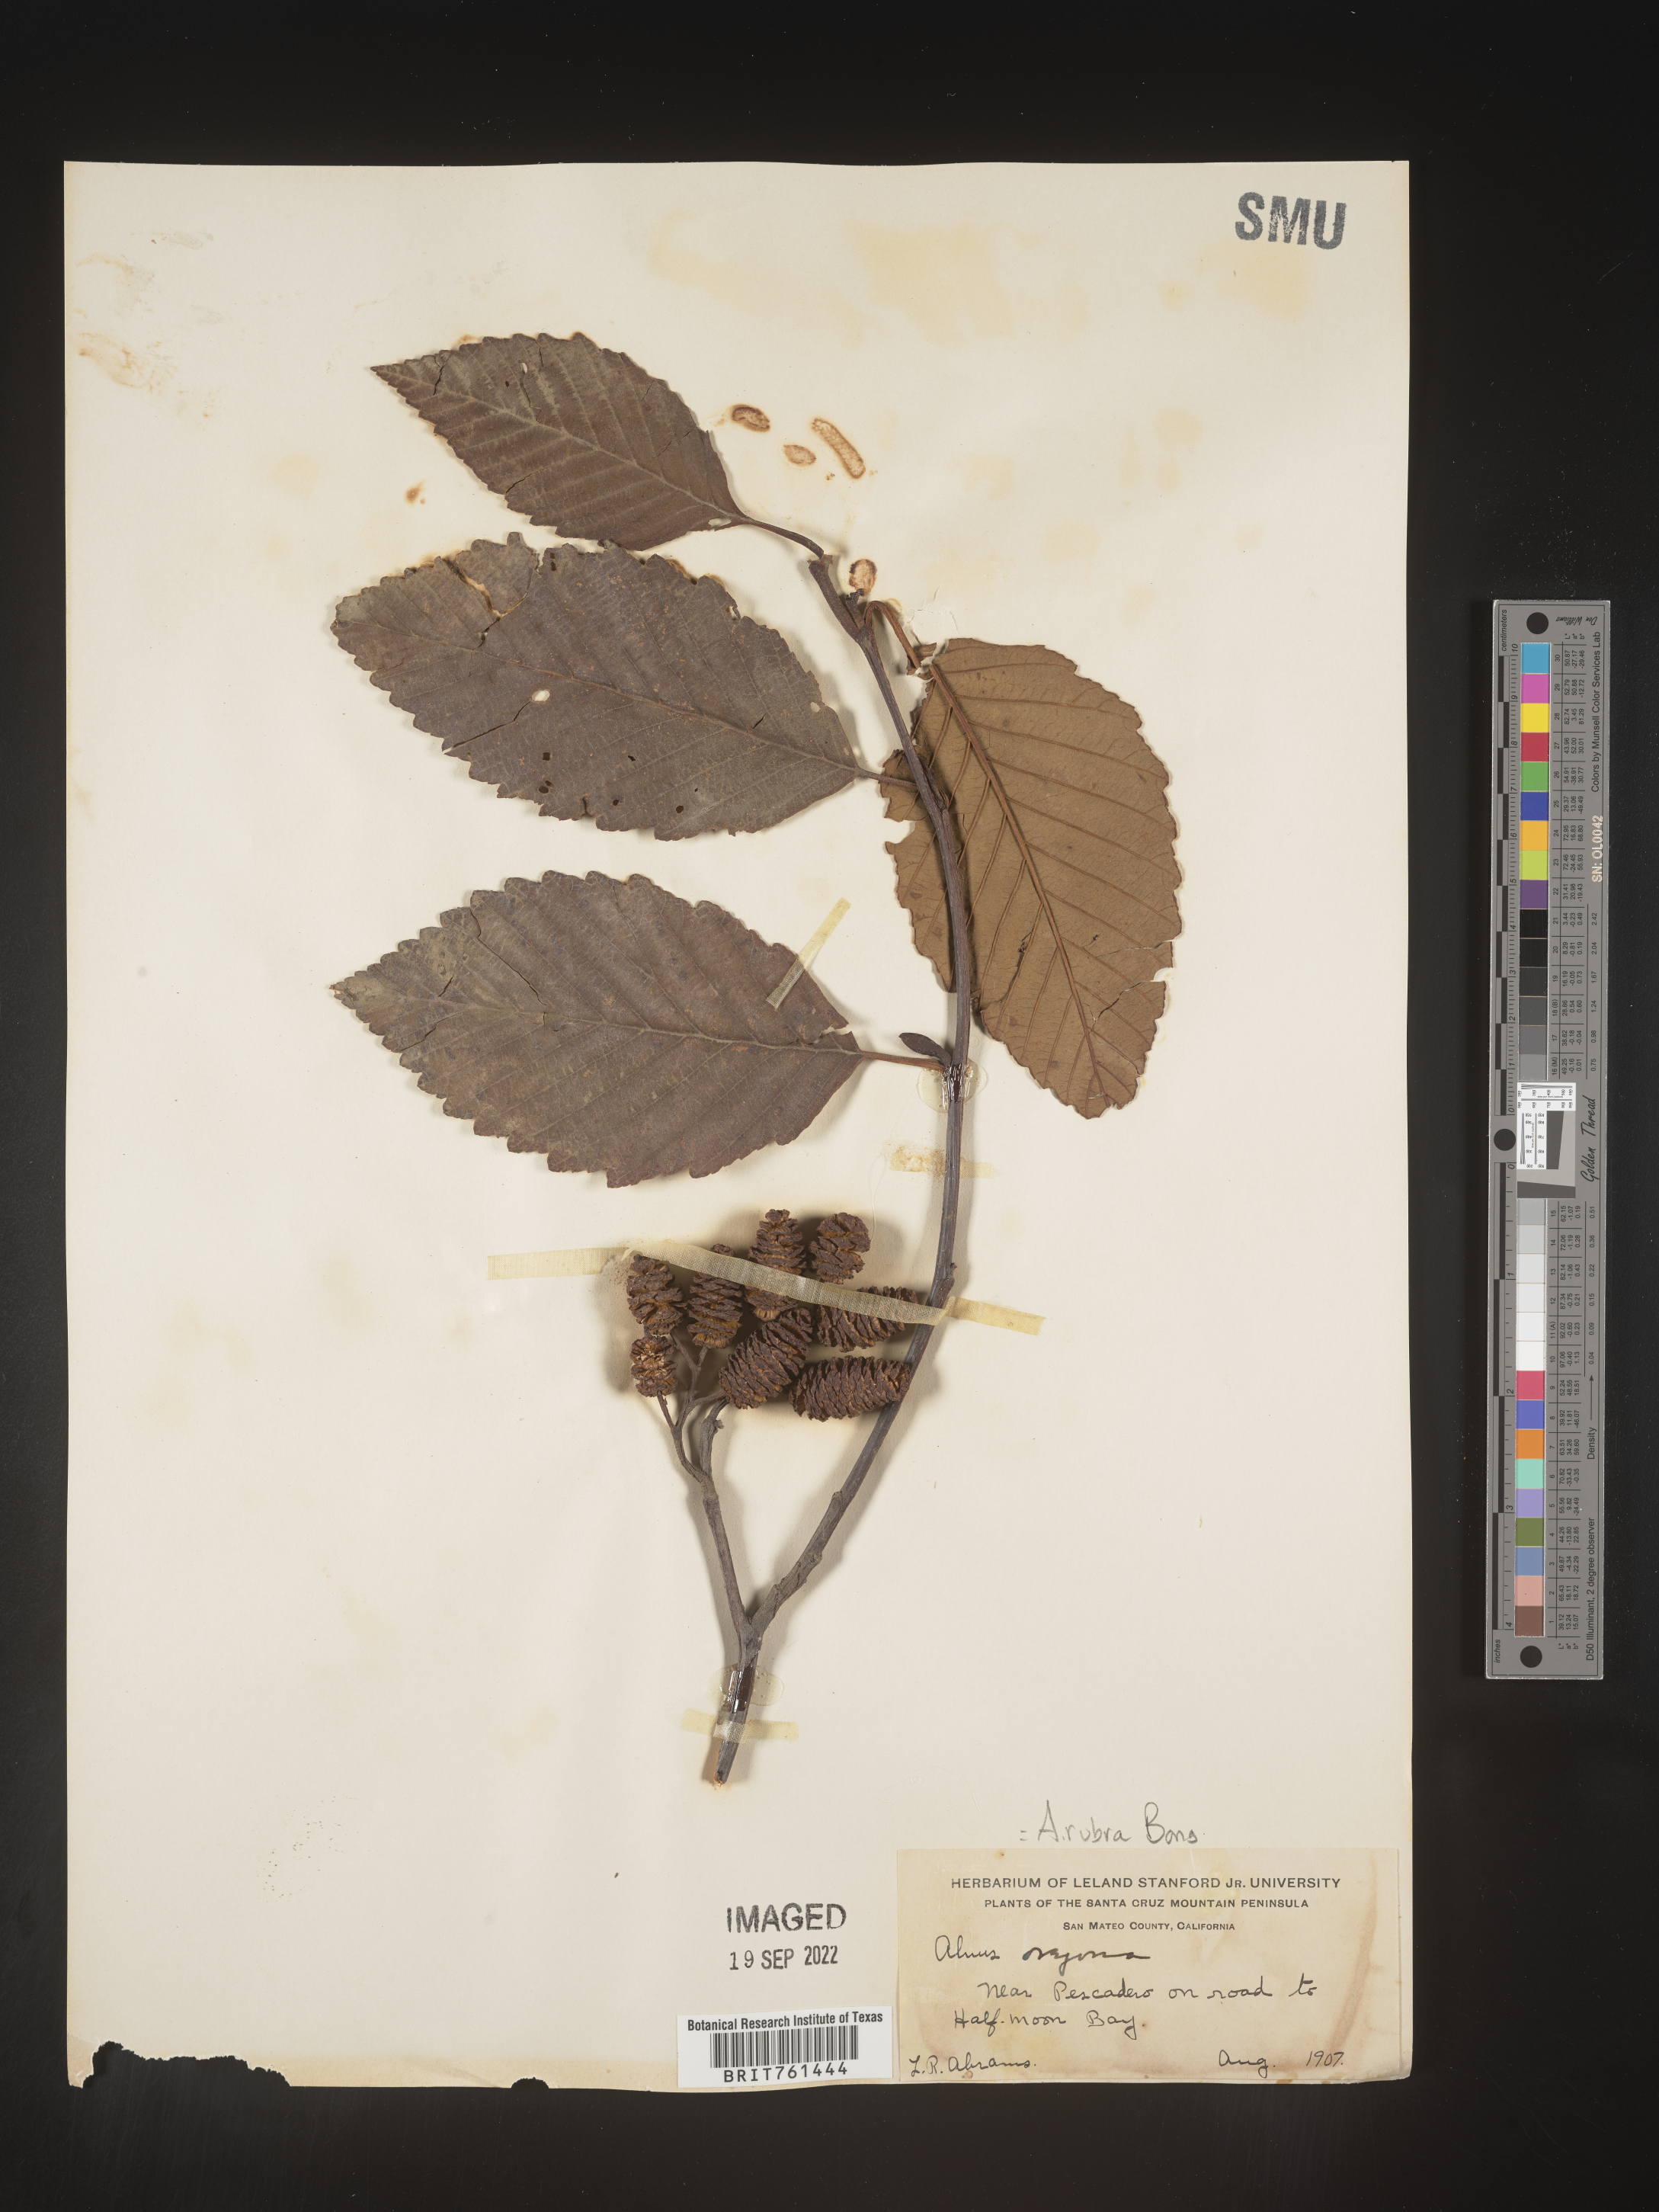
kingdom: Plantae
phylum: Tracheophyta
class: Magnoliopsida
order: Fagales
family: Betulaceae
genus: Alnus
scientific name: Alnus rubra
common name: Red alder
